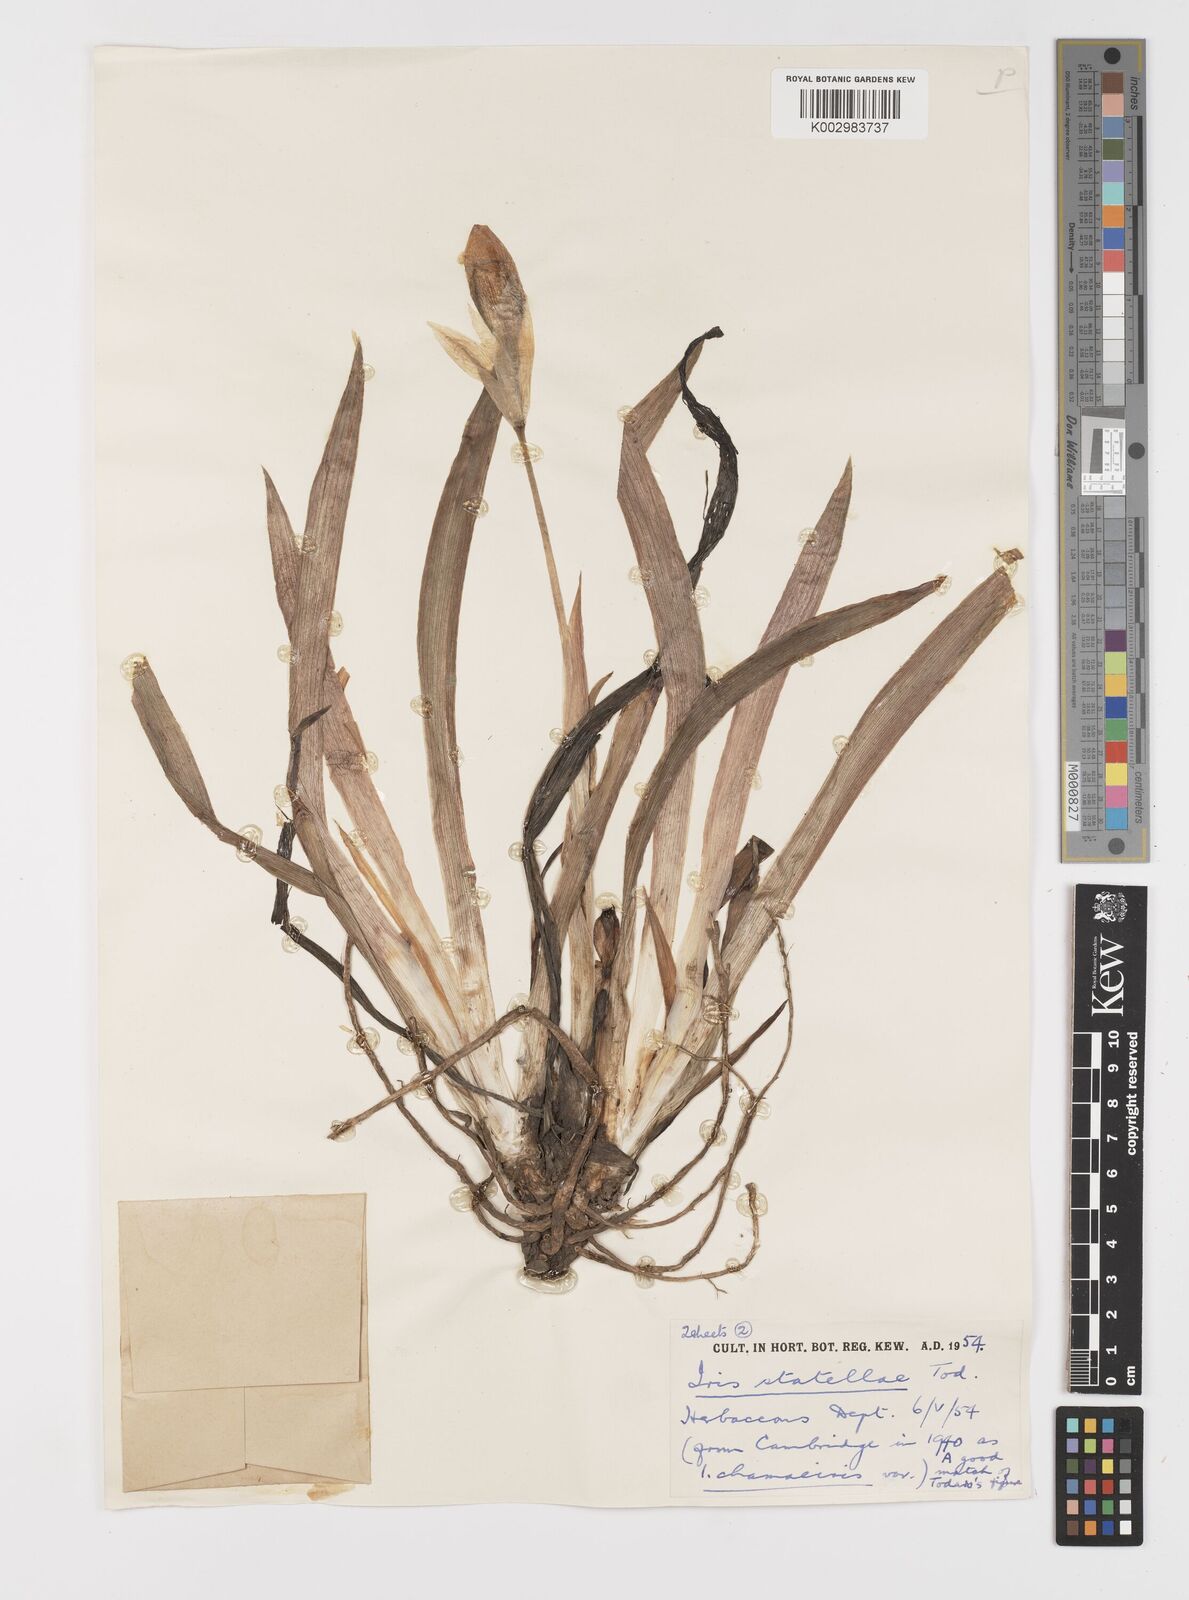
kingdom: Plantae
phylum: Tracheophyta
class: Liliopsida
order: Asparagales
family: Iridaceae
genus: Iris
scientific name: Iris lutescens
